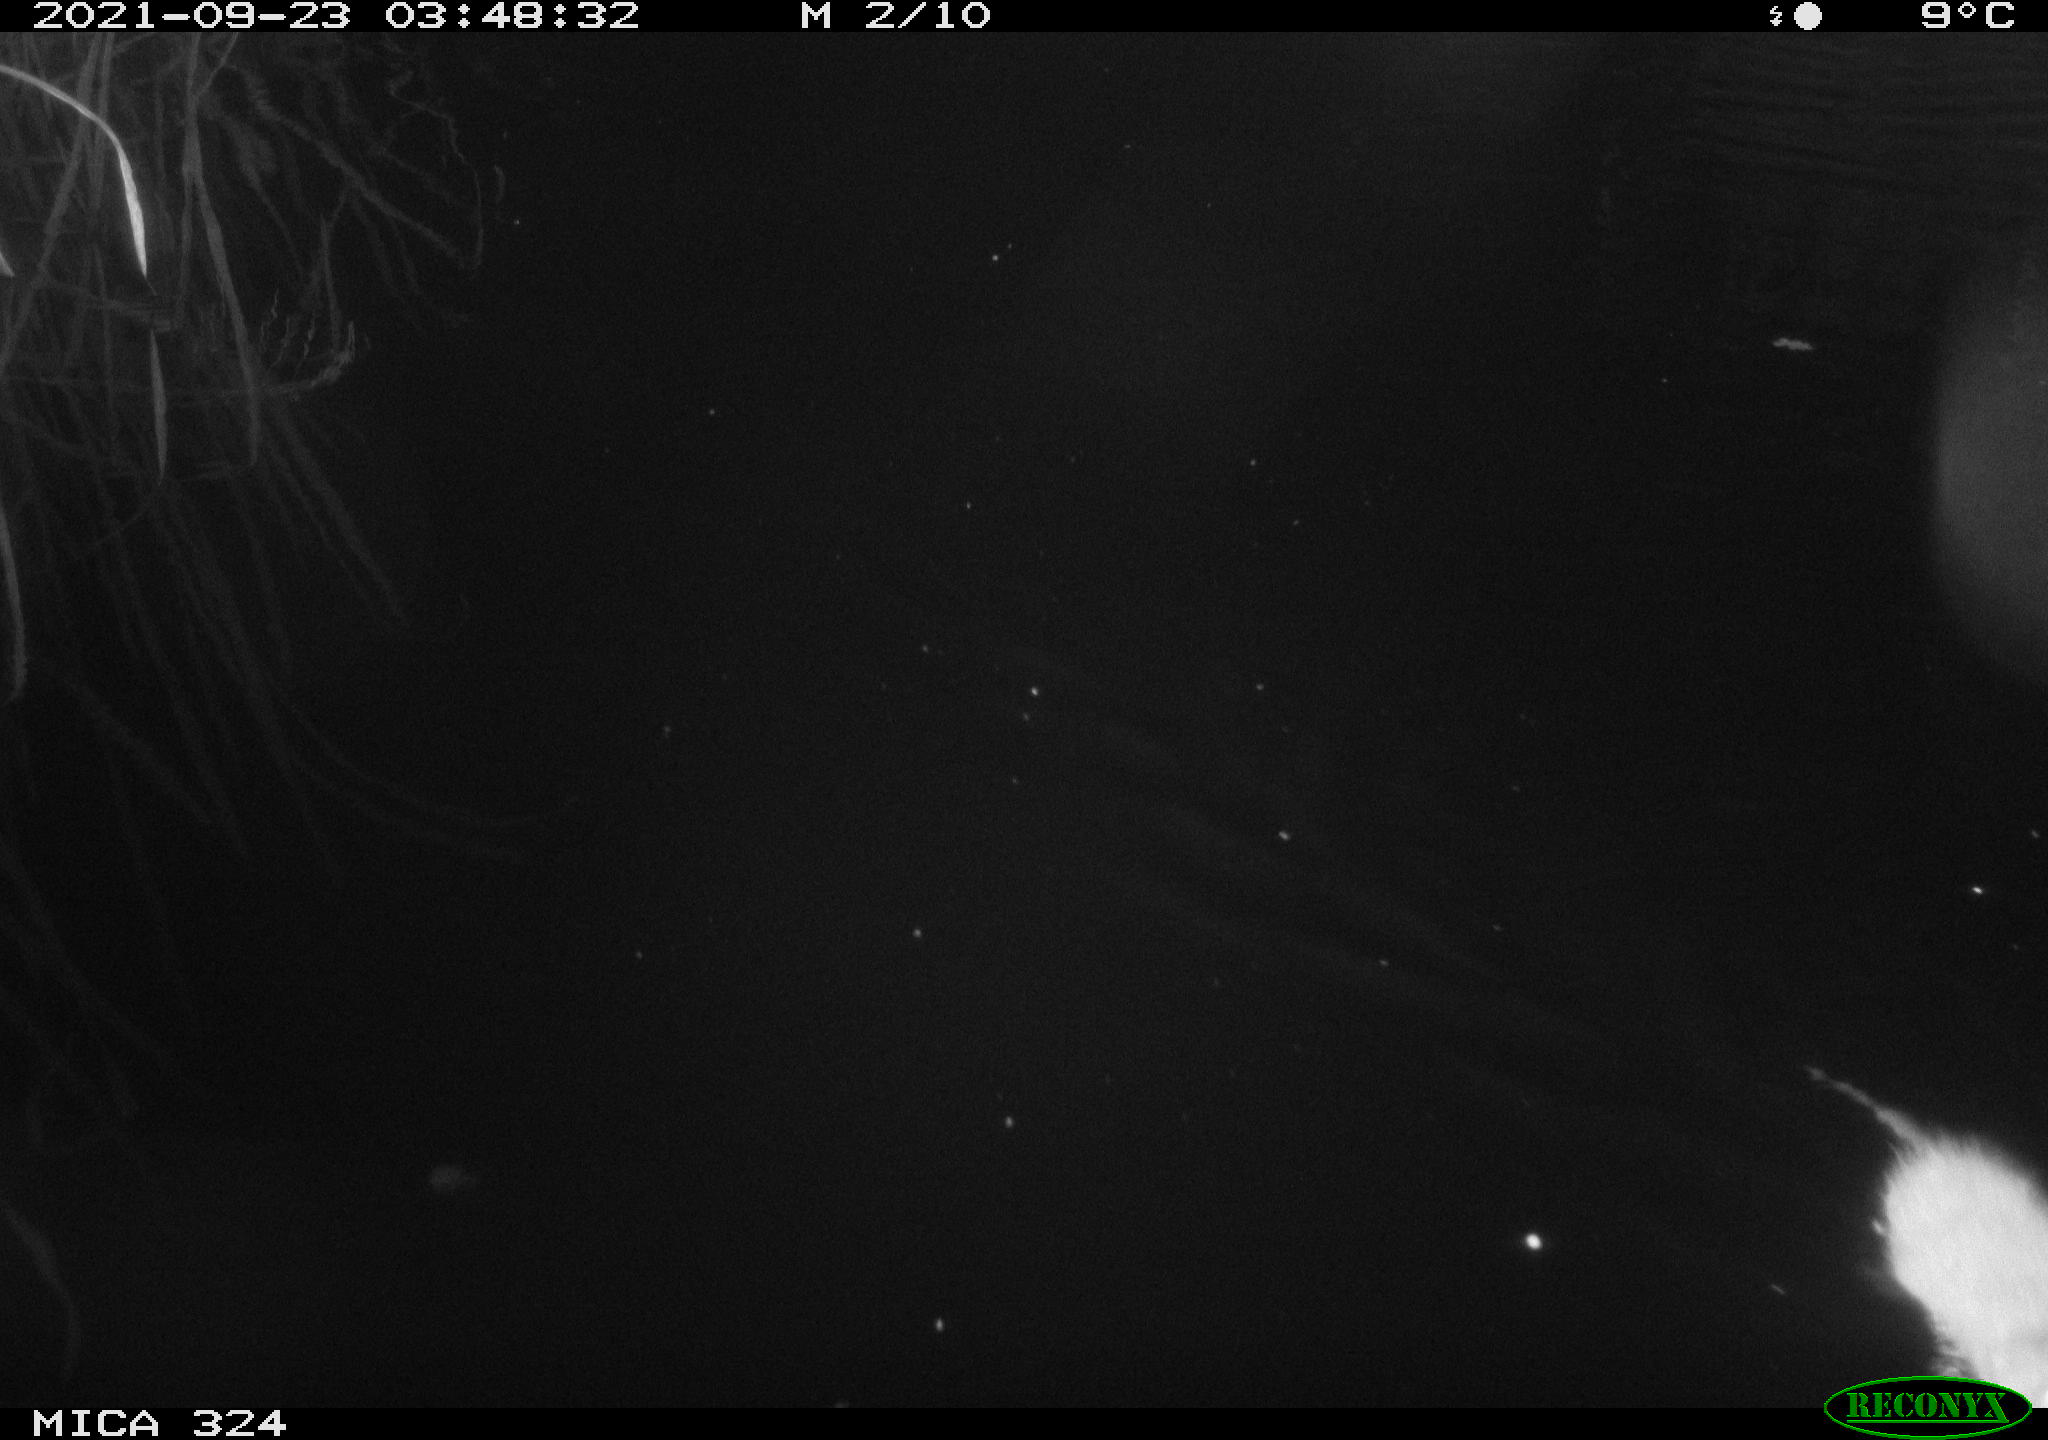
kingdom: Animalia
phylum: Chordata
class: Mammalia
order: Rodentia
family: Cricetidae
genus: Ondatra
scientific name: Ondatra zibethicus
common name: Muskrat
